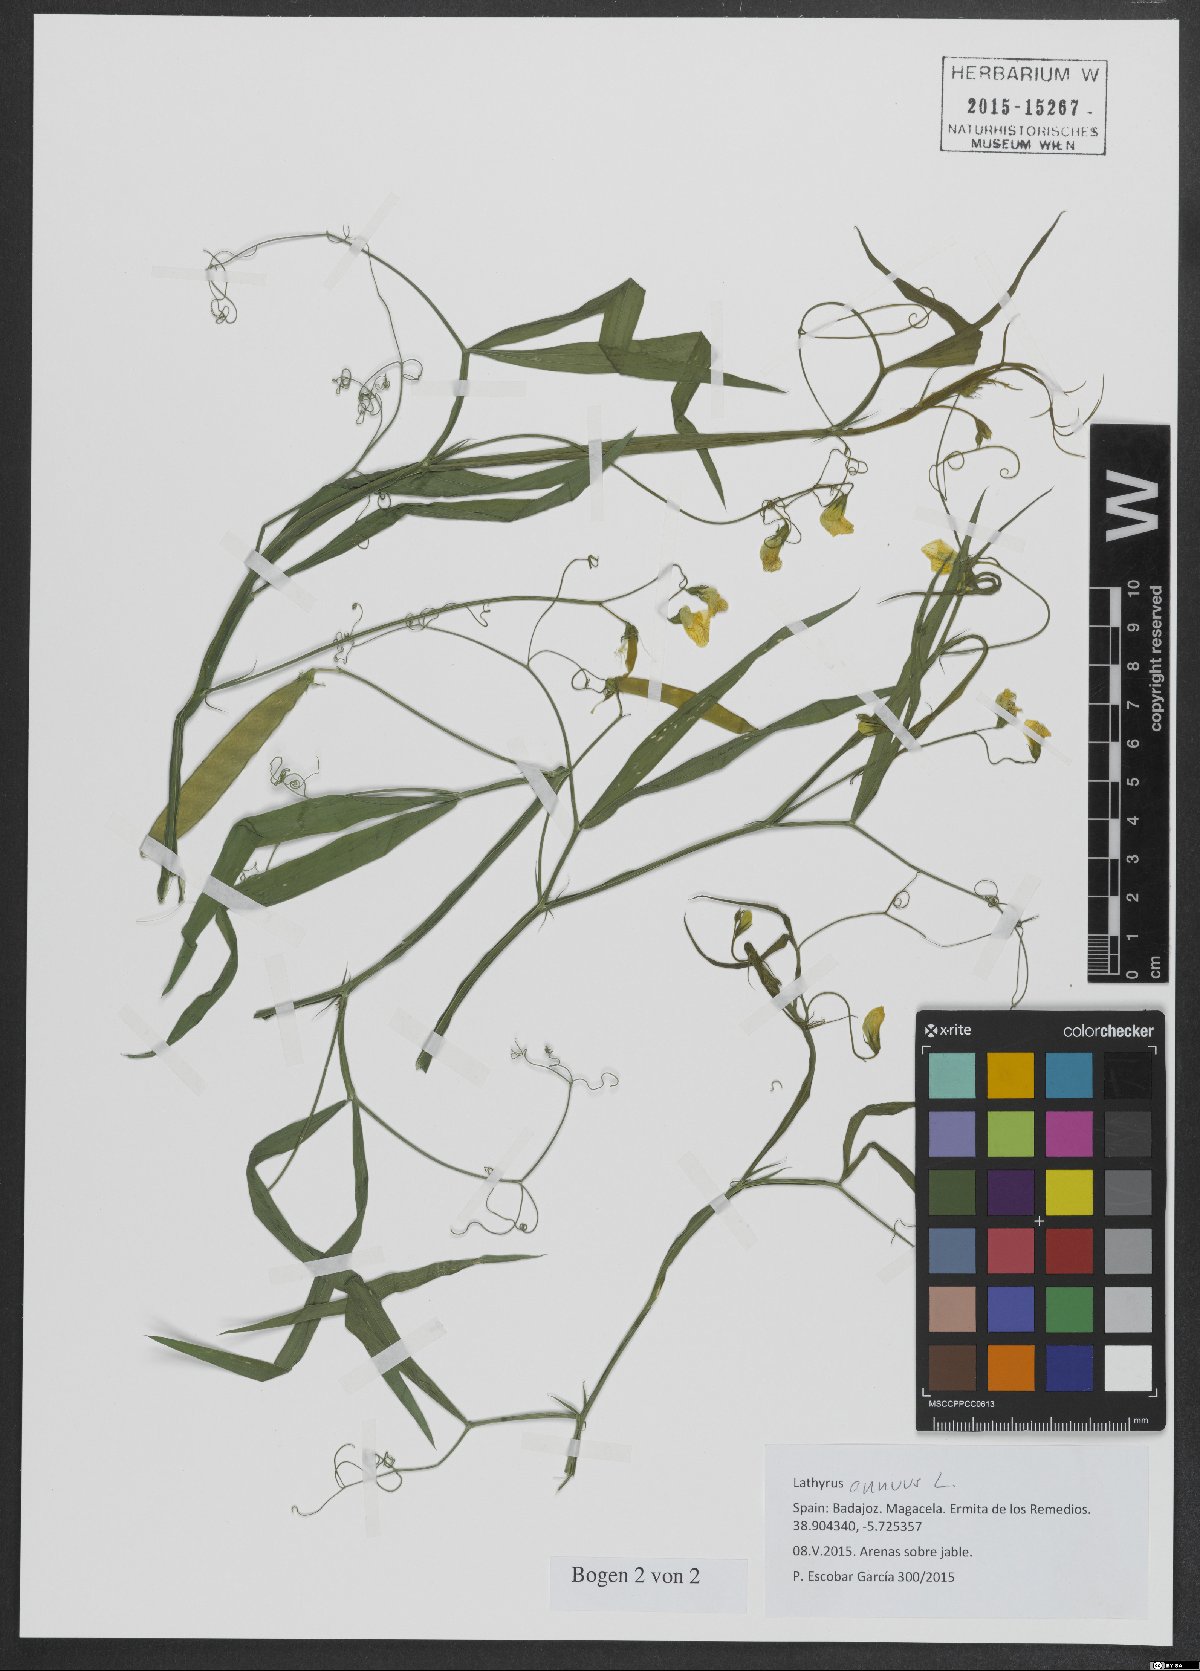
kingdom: Plantae
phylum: Tracheophyta
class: Magnoliopsida
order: Fabales
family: Fabaceae
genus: Lathyrus
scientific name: Lathyrus annuus
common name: Fodder pea
